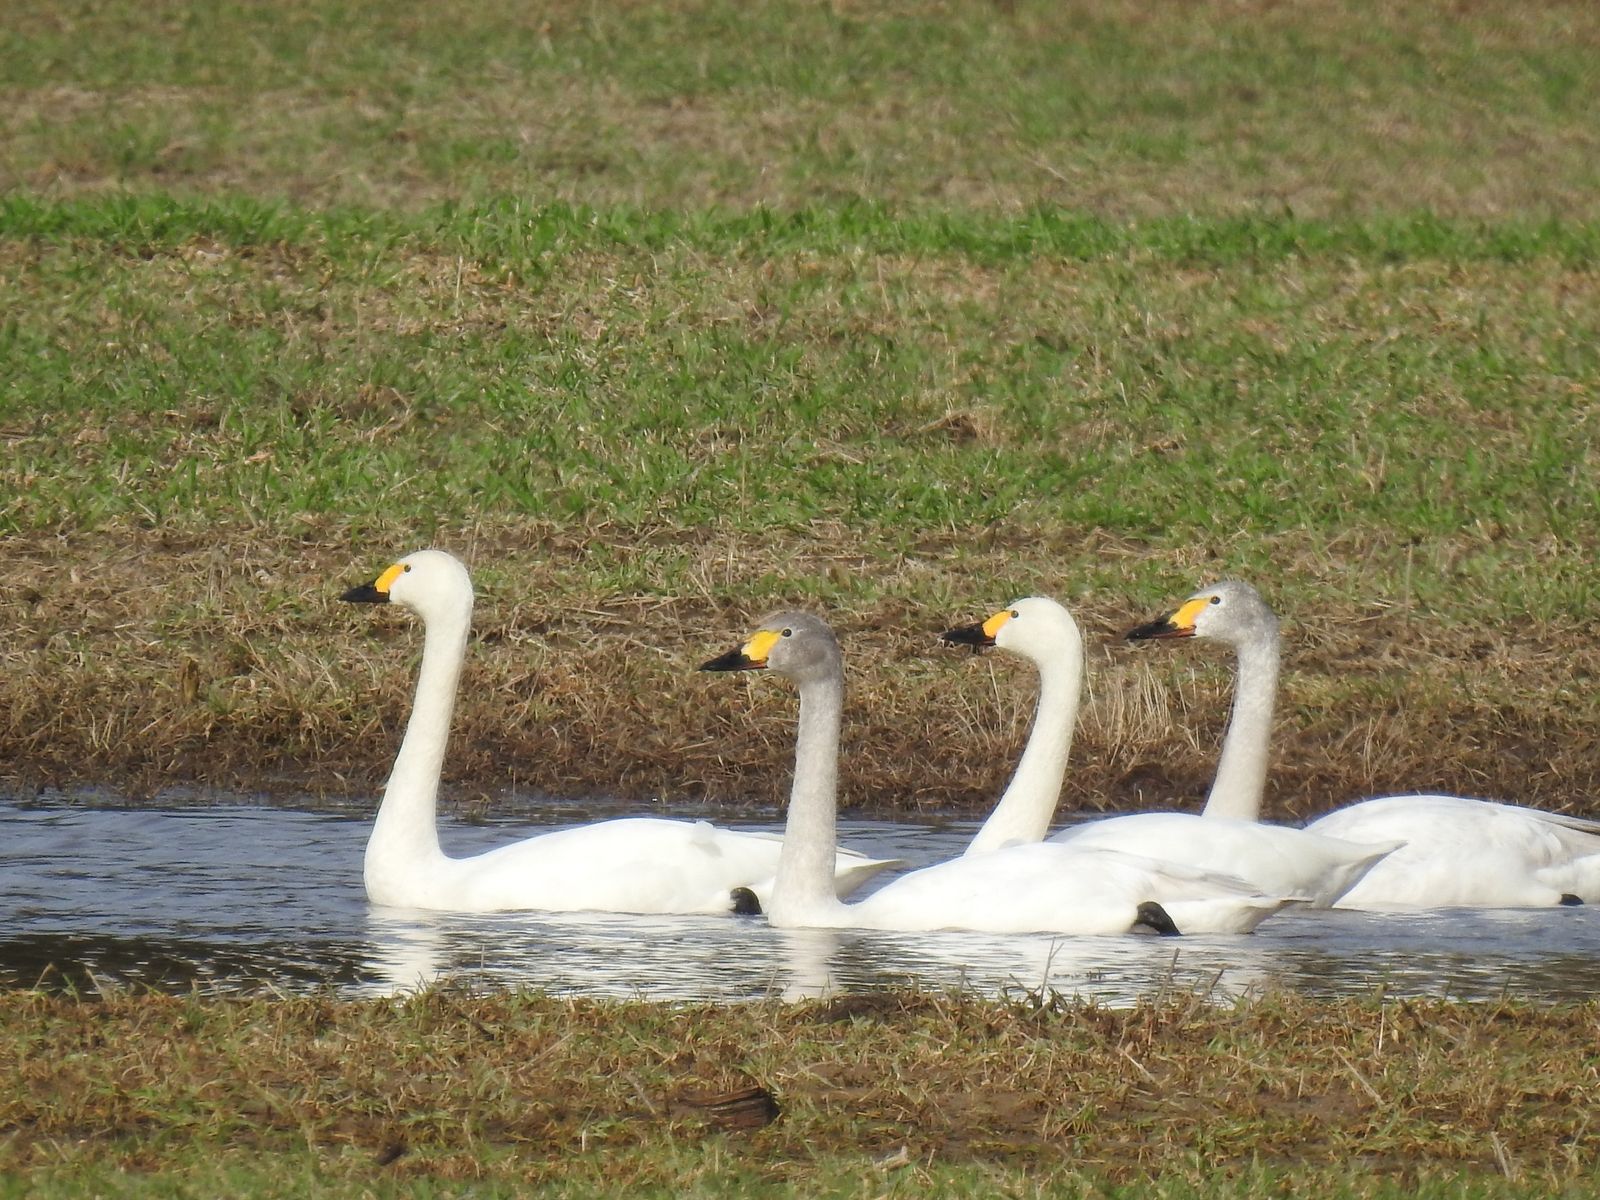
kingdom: Animalia
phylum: Chordata
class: Aves
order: Anseriformes
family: Anatidae
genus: Cygnus
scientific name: Cygnus columbianus
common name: Tundra swan
